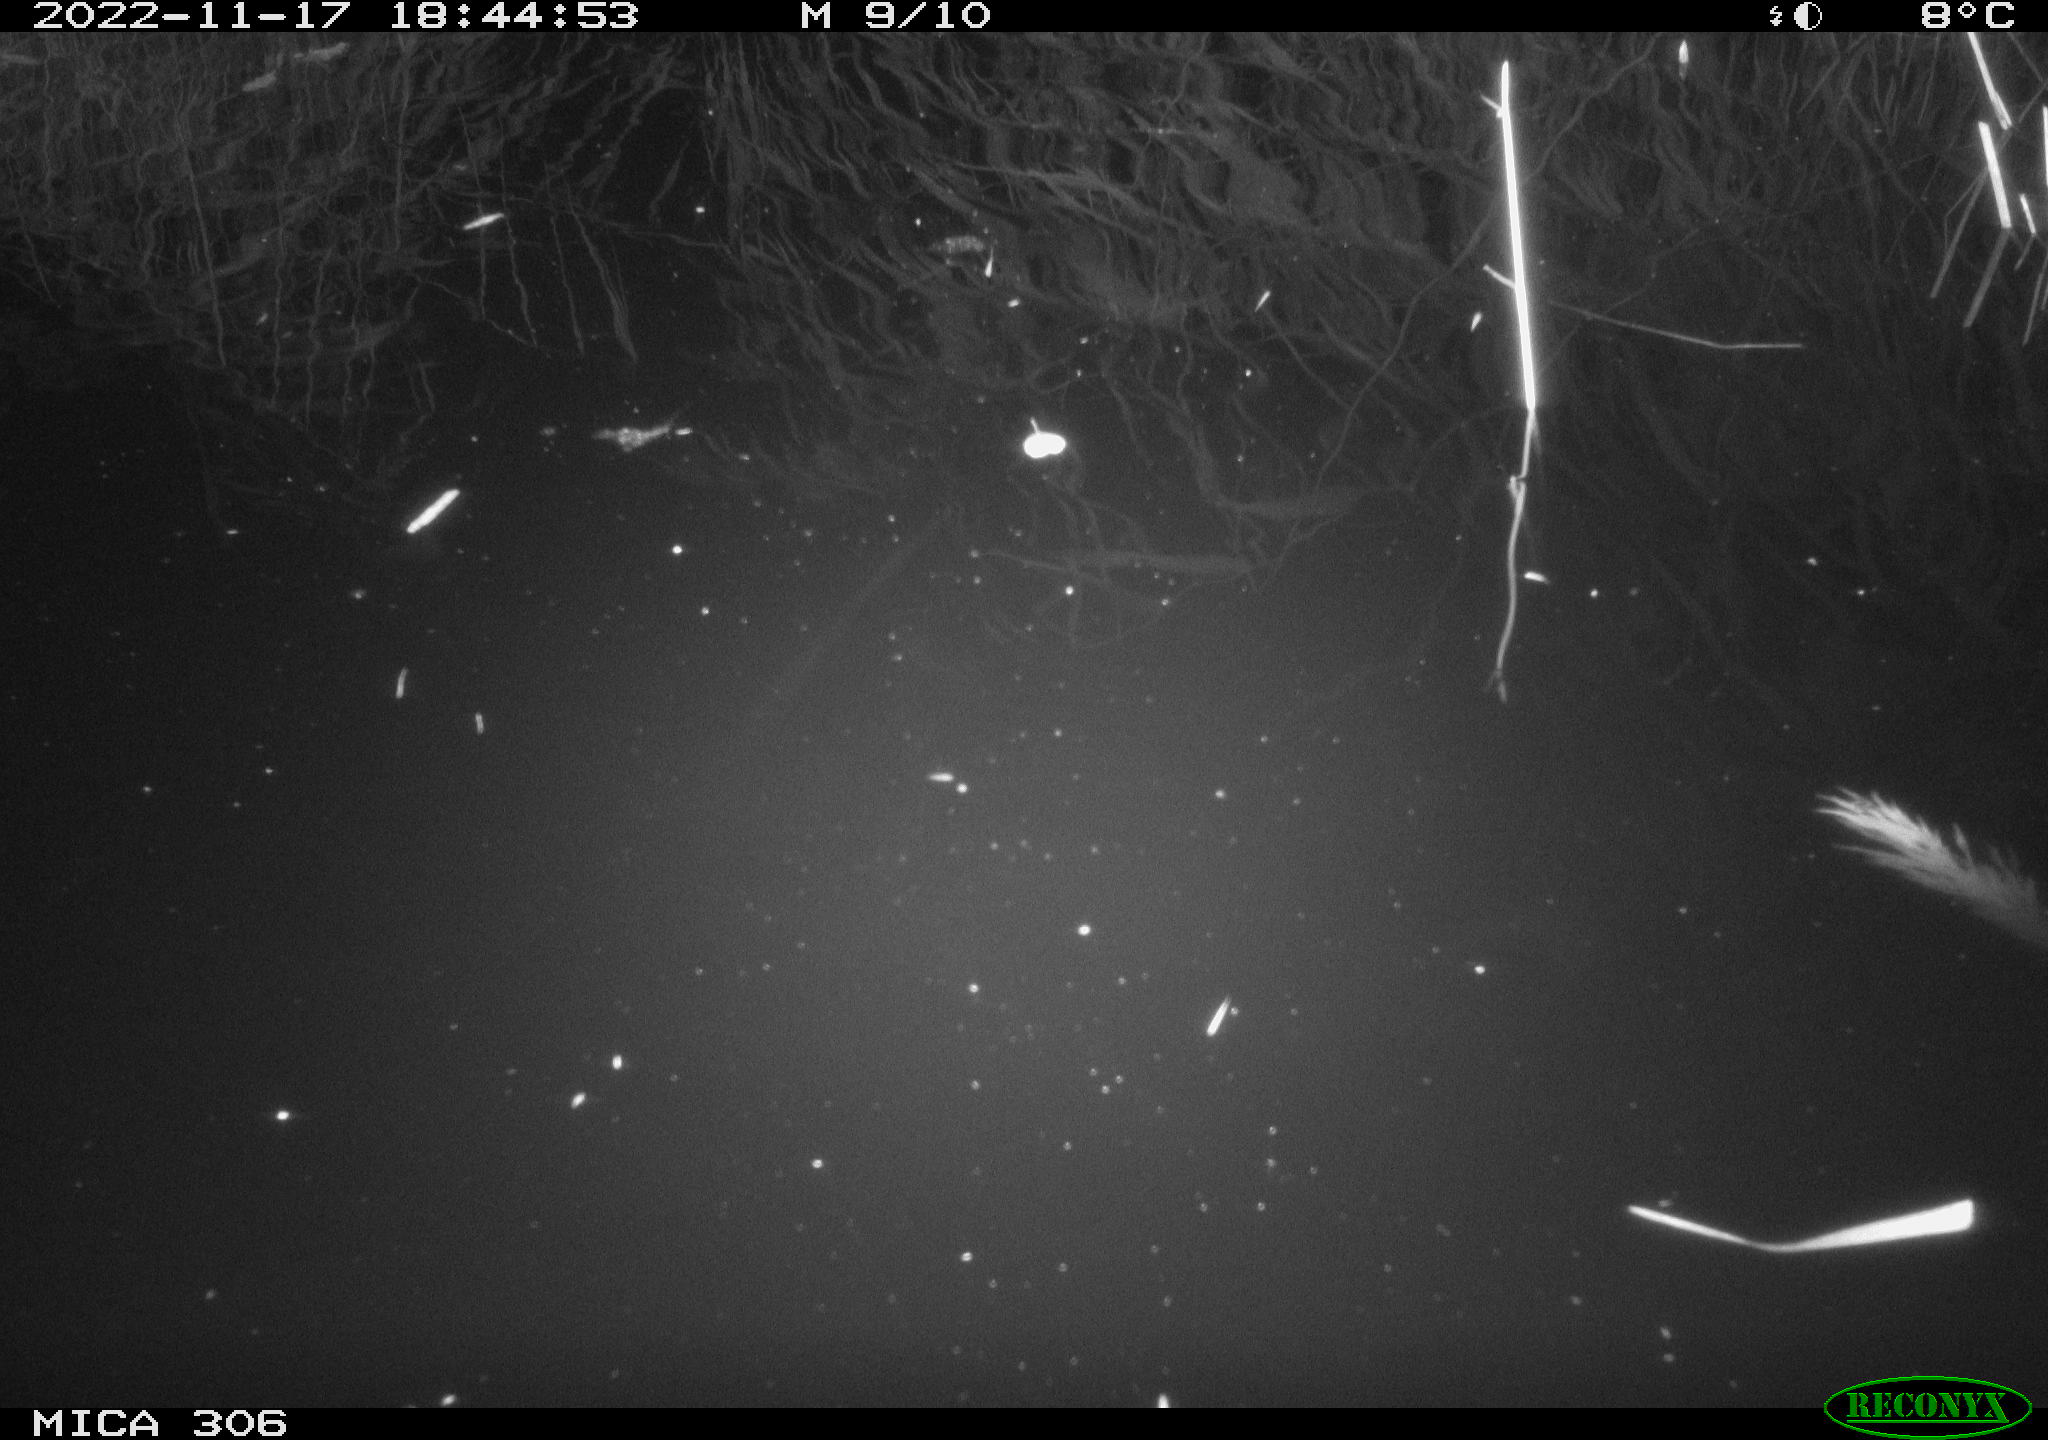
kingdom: Animalia
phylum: Chordata
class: Mammalia
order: Rodentia
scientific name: Rodentia
